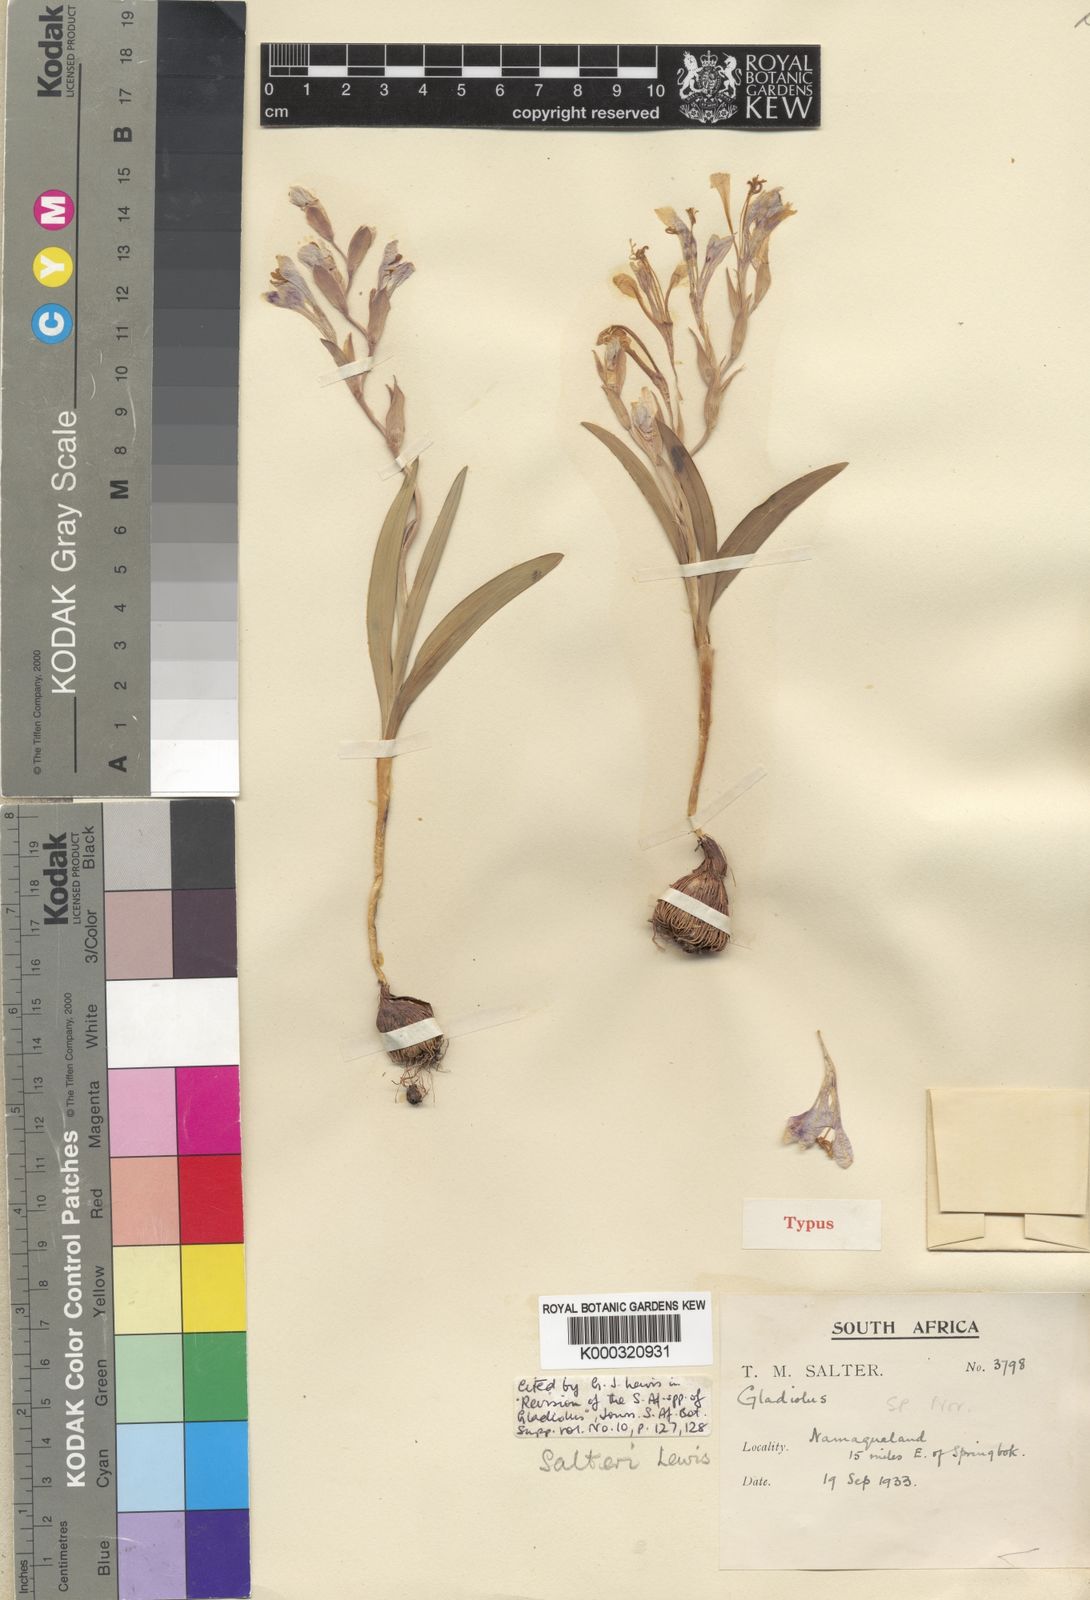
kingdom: Plantae
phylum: Tracheophyta
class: Liliopsida
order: Asparagales
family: Iridaceae
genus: Gladiolus
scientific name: Gladiolus salteri
